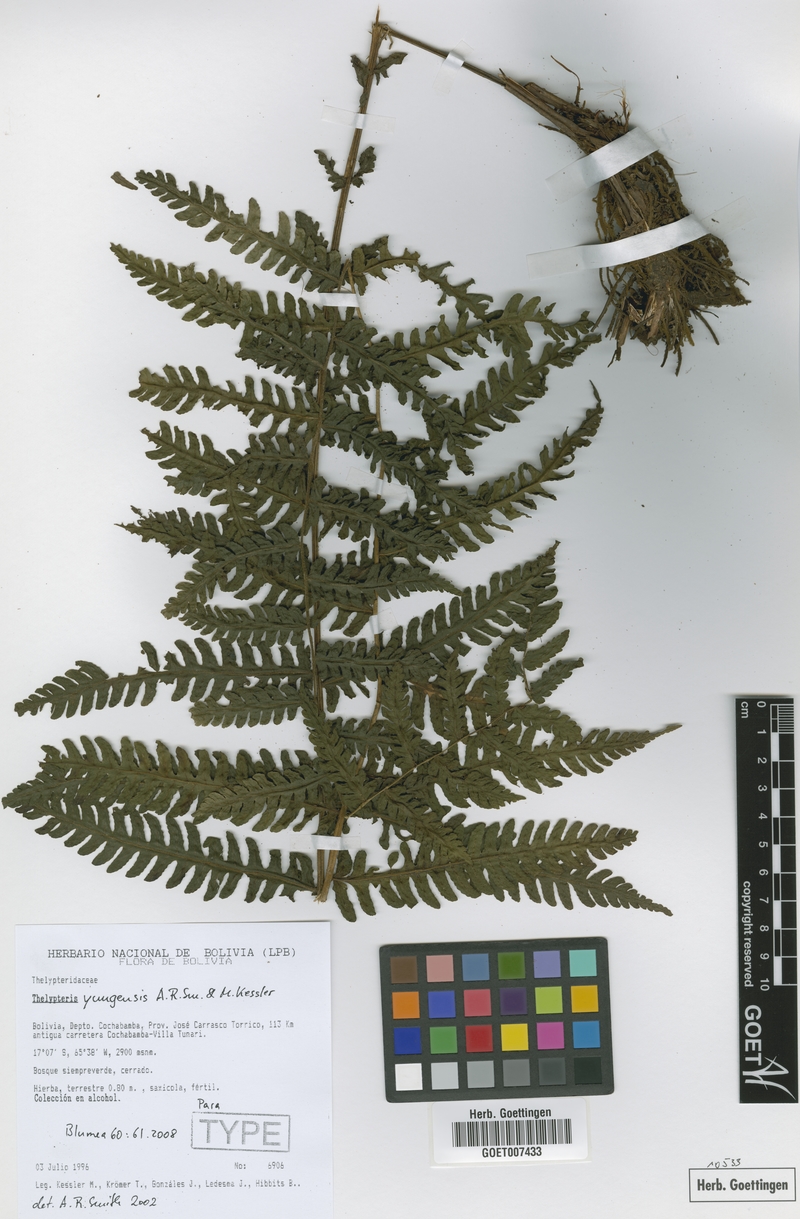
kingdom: Plantae
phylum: Tracheophyta
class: Polypodiopsida
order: Polypodiales
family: Thelypteridaceae
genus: Amauropelta
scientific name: Amauropelta yungensis
